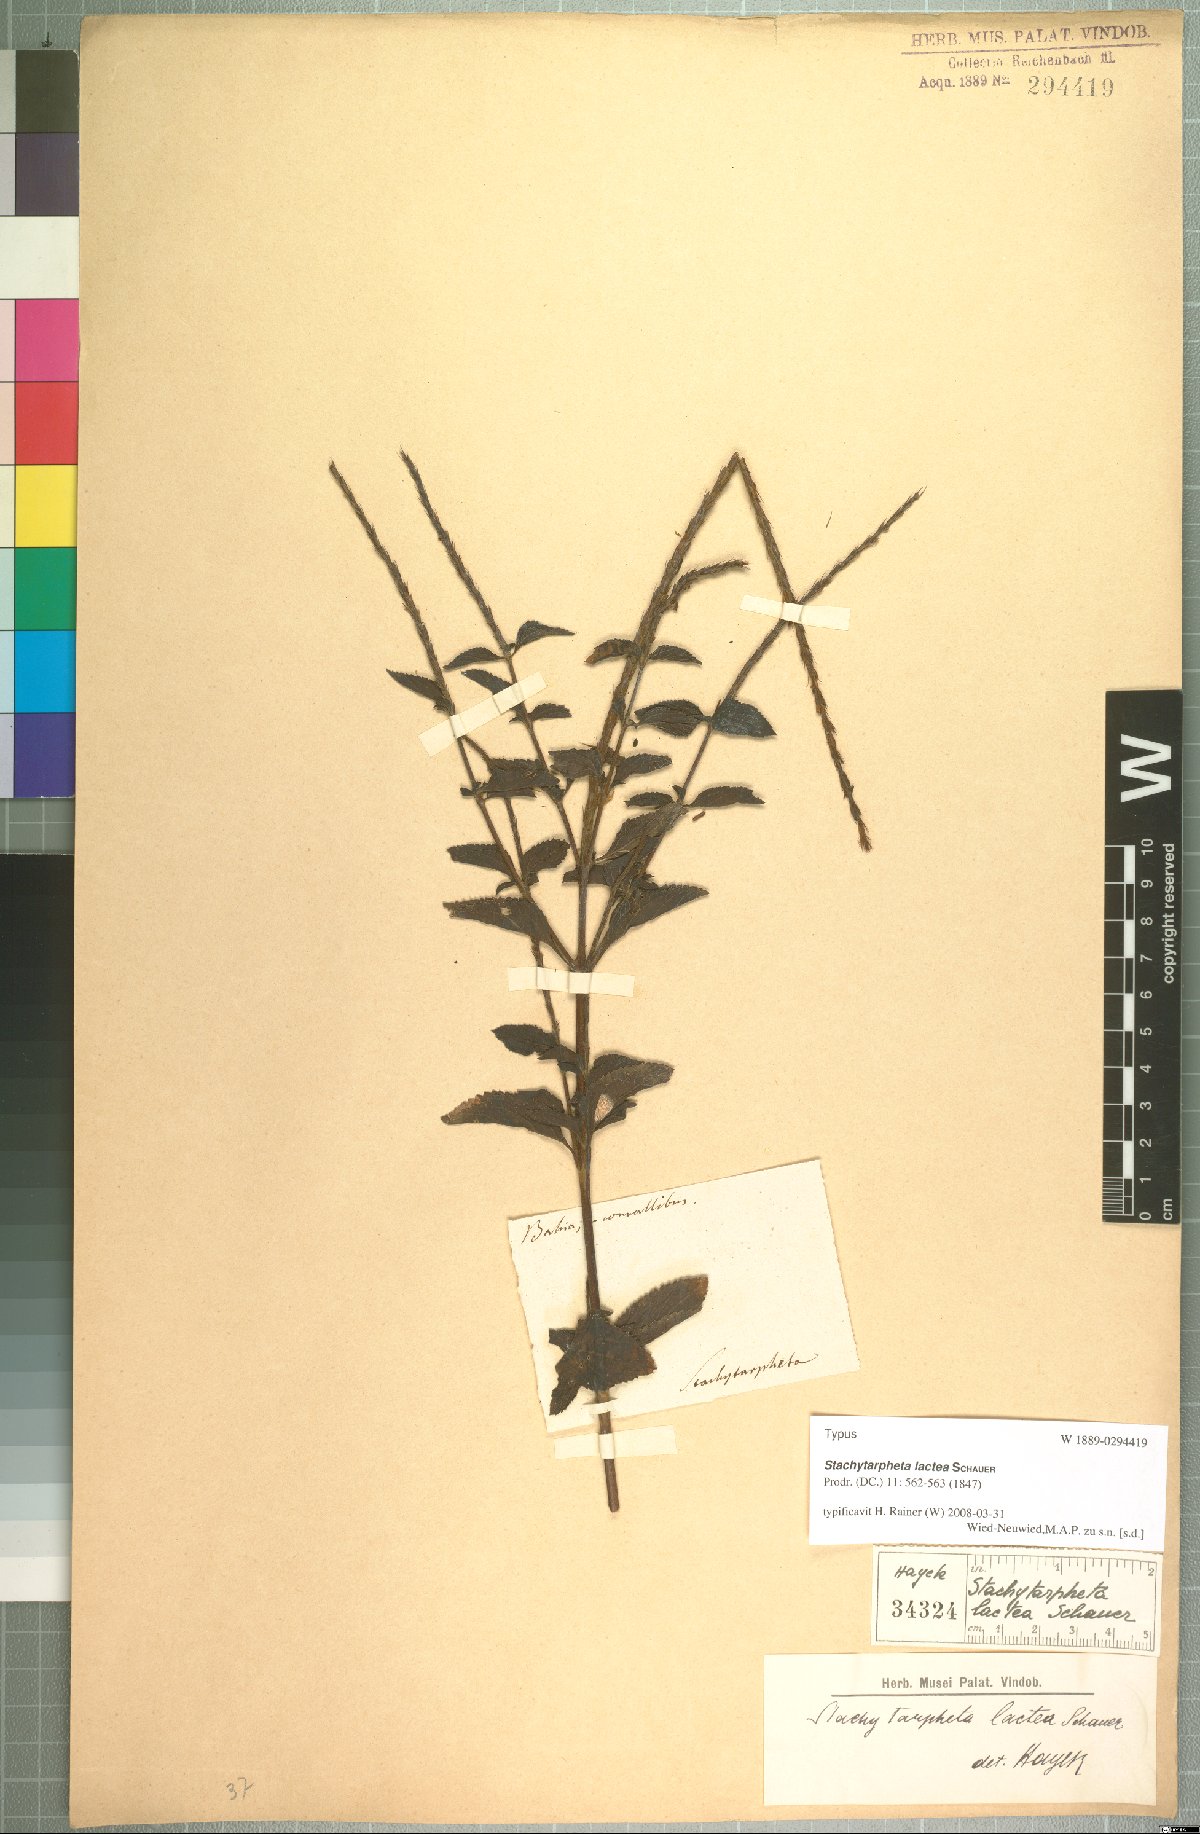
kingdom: Plantae
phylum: Tracheophyta
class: Magnoliopsida
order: Lamiales
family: Verbenaceae
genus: Stachytarpheta
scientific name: Stachytarpheta polyura
